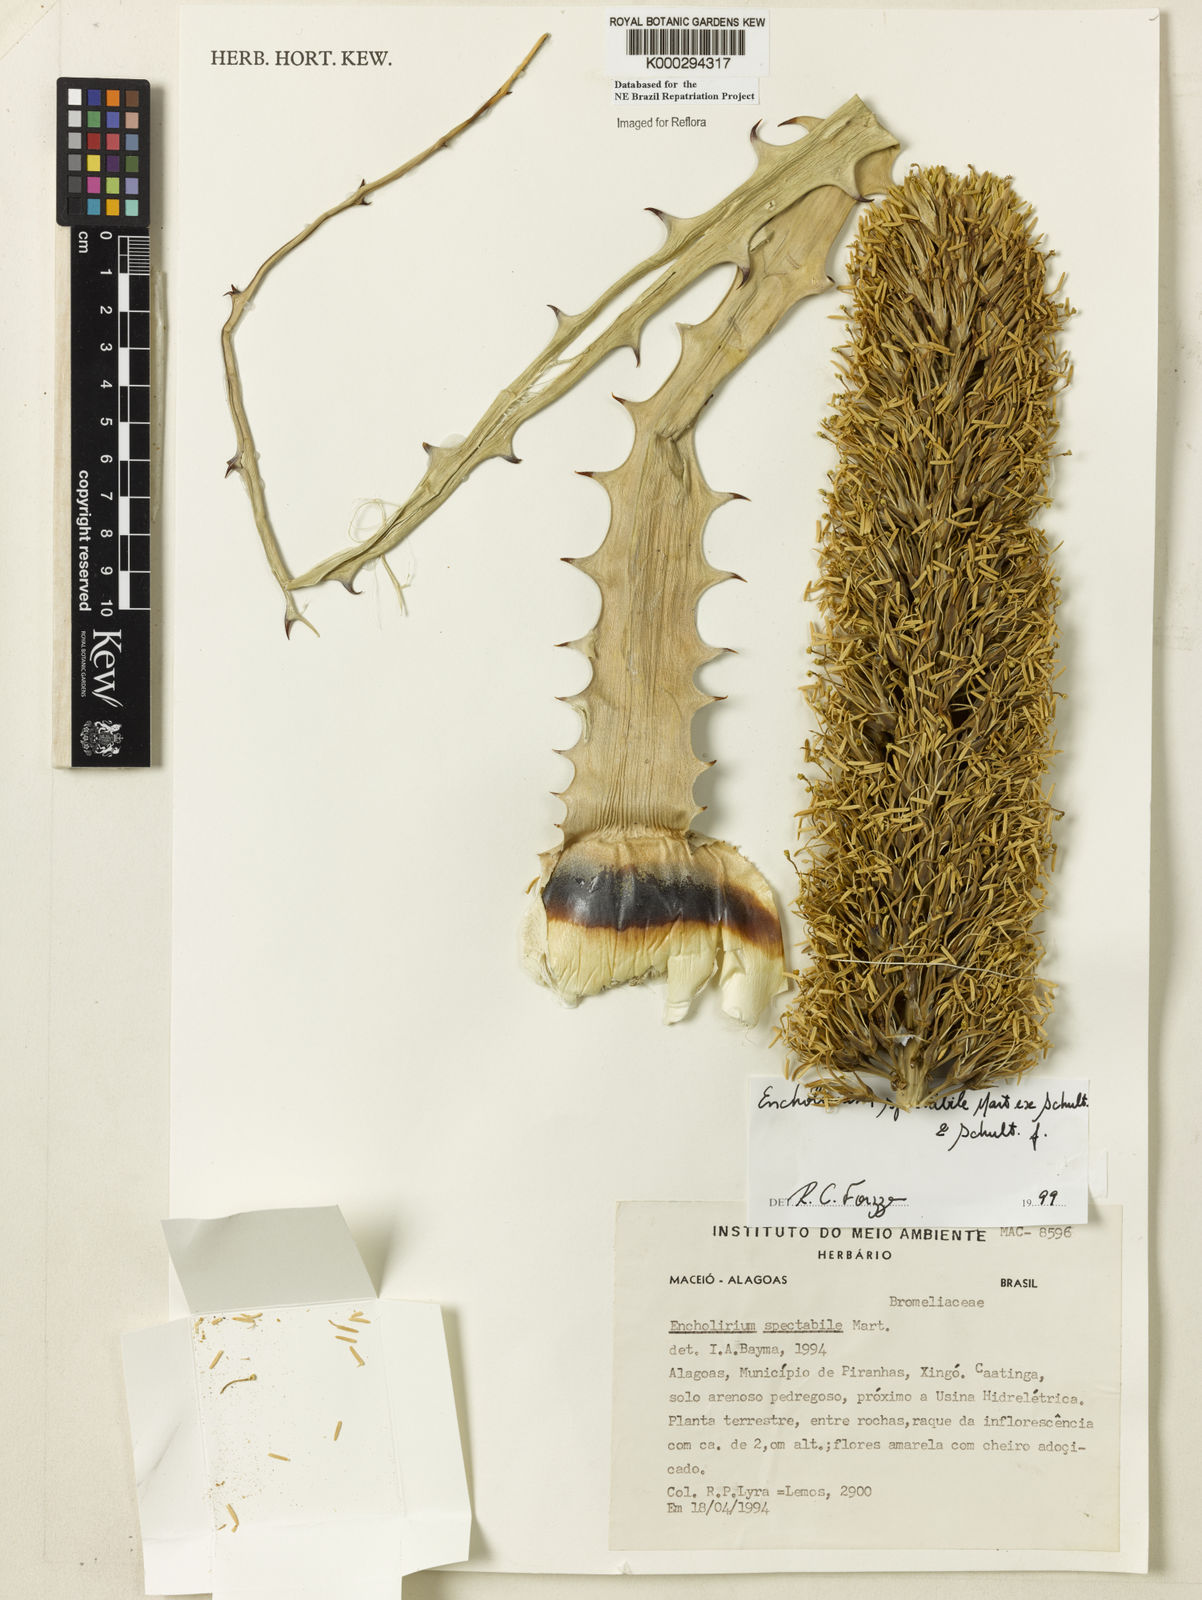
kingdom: Plantae
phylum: Tracheophyta
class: Liliopsida
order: Poales
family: Bromeliaceae
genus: Encholirium
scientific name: Encholirium spectabile
